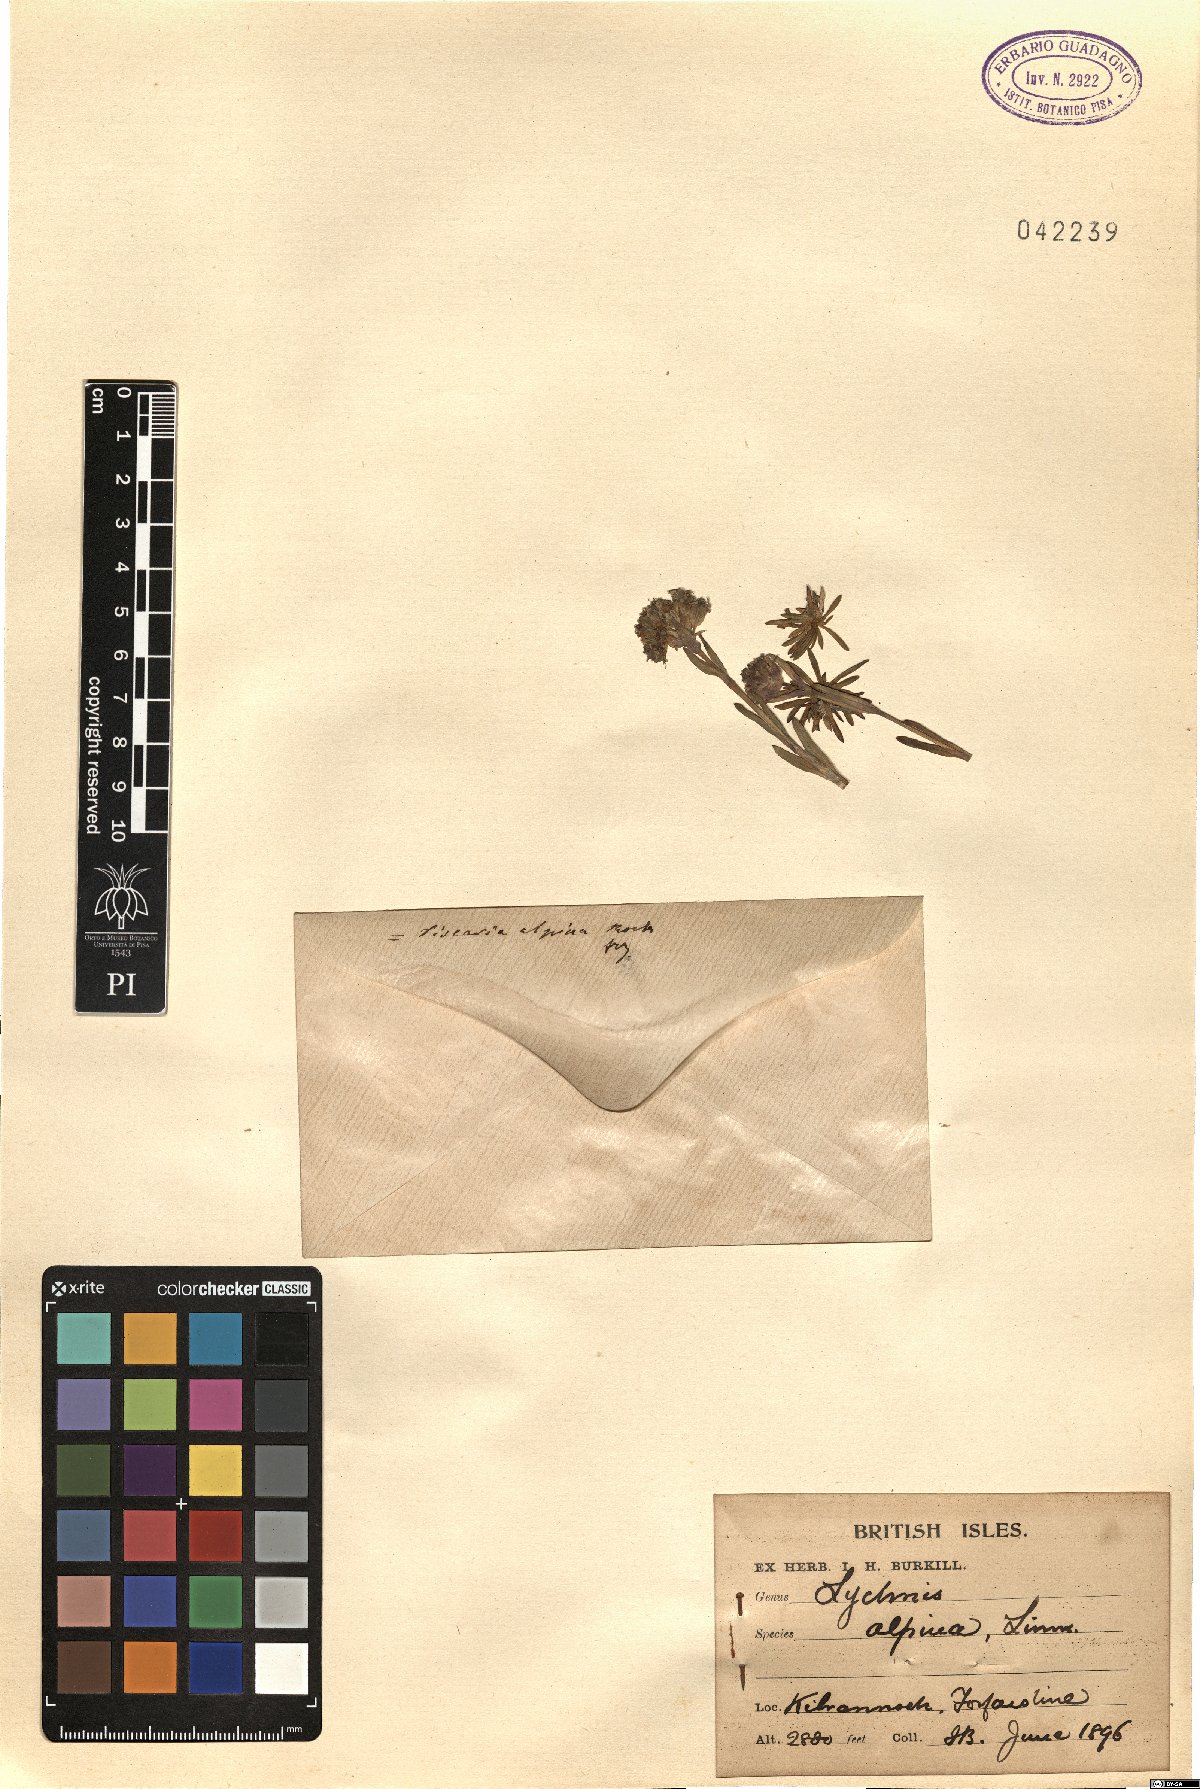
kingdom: Plantae
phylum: Tracheophyta
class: Magnoliopsida
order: Caryophyllales
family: Caryophyllaceae
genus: Viscaria
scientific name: Viscaria alpina
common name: Alpine campion
